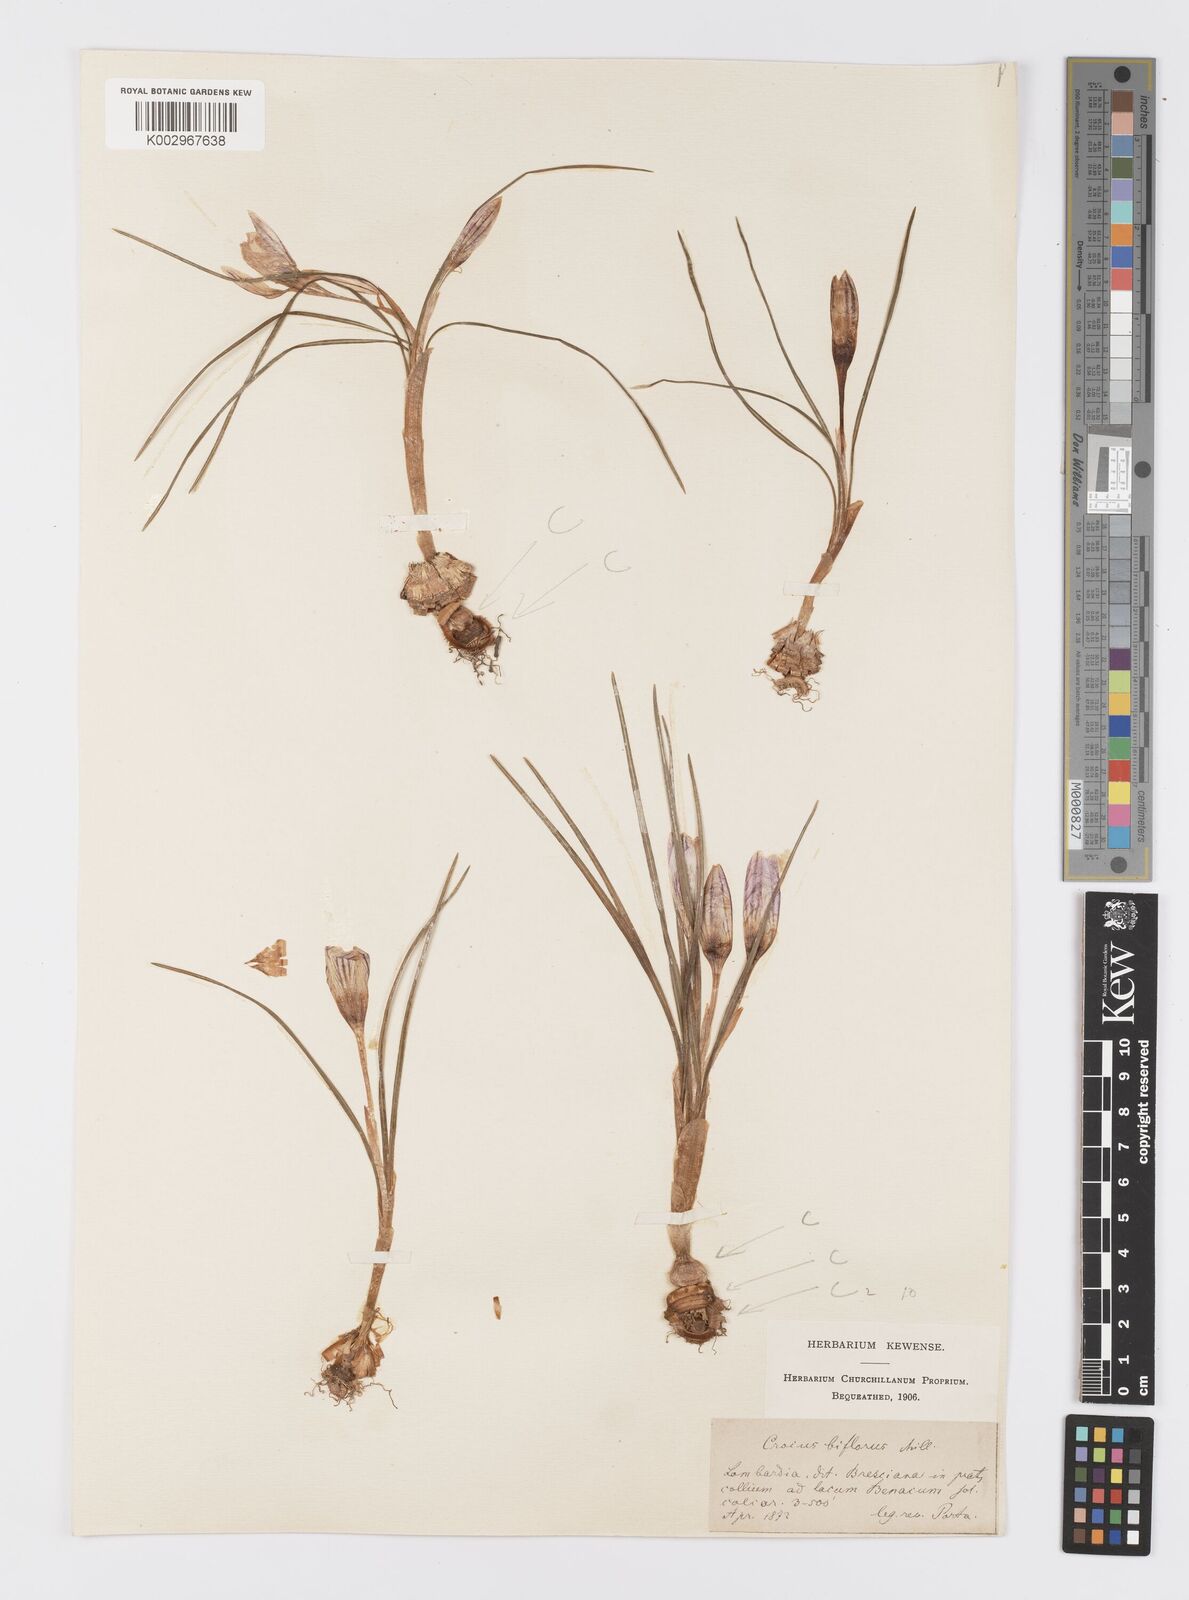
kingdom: Plantae
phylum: Tracheophyta
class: Liliopsida
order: Asparagales
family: Iridaceae
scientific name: Iridaceae
